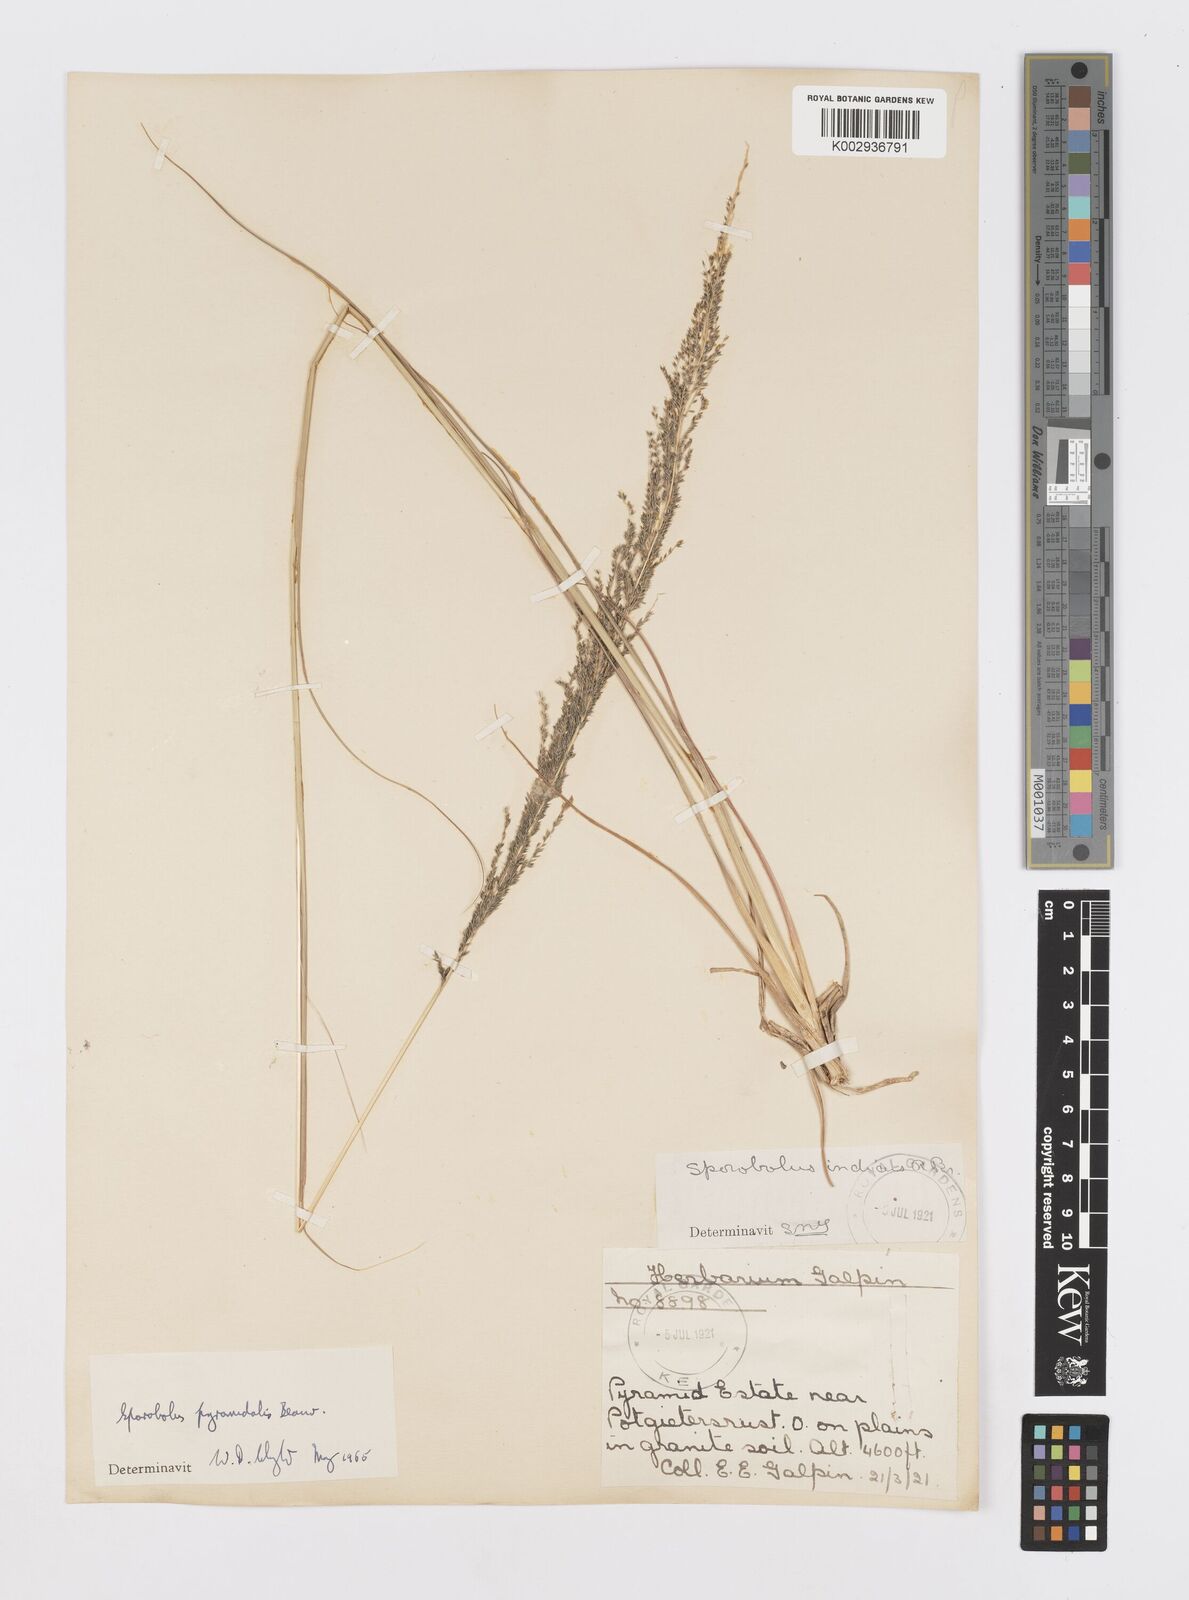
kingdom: Plantae
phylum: Tracheophyta
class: Liliopsida
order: Poales
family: Poaceae
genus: Sporobolus
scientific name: Sporobolus pyramidalis
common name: West indian dropseed
